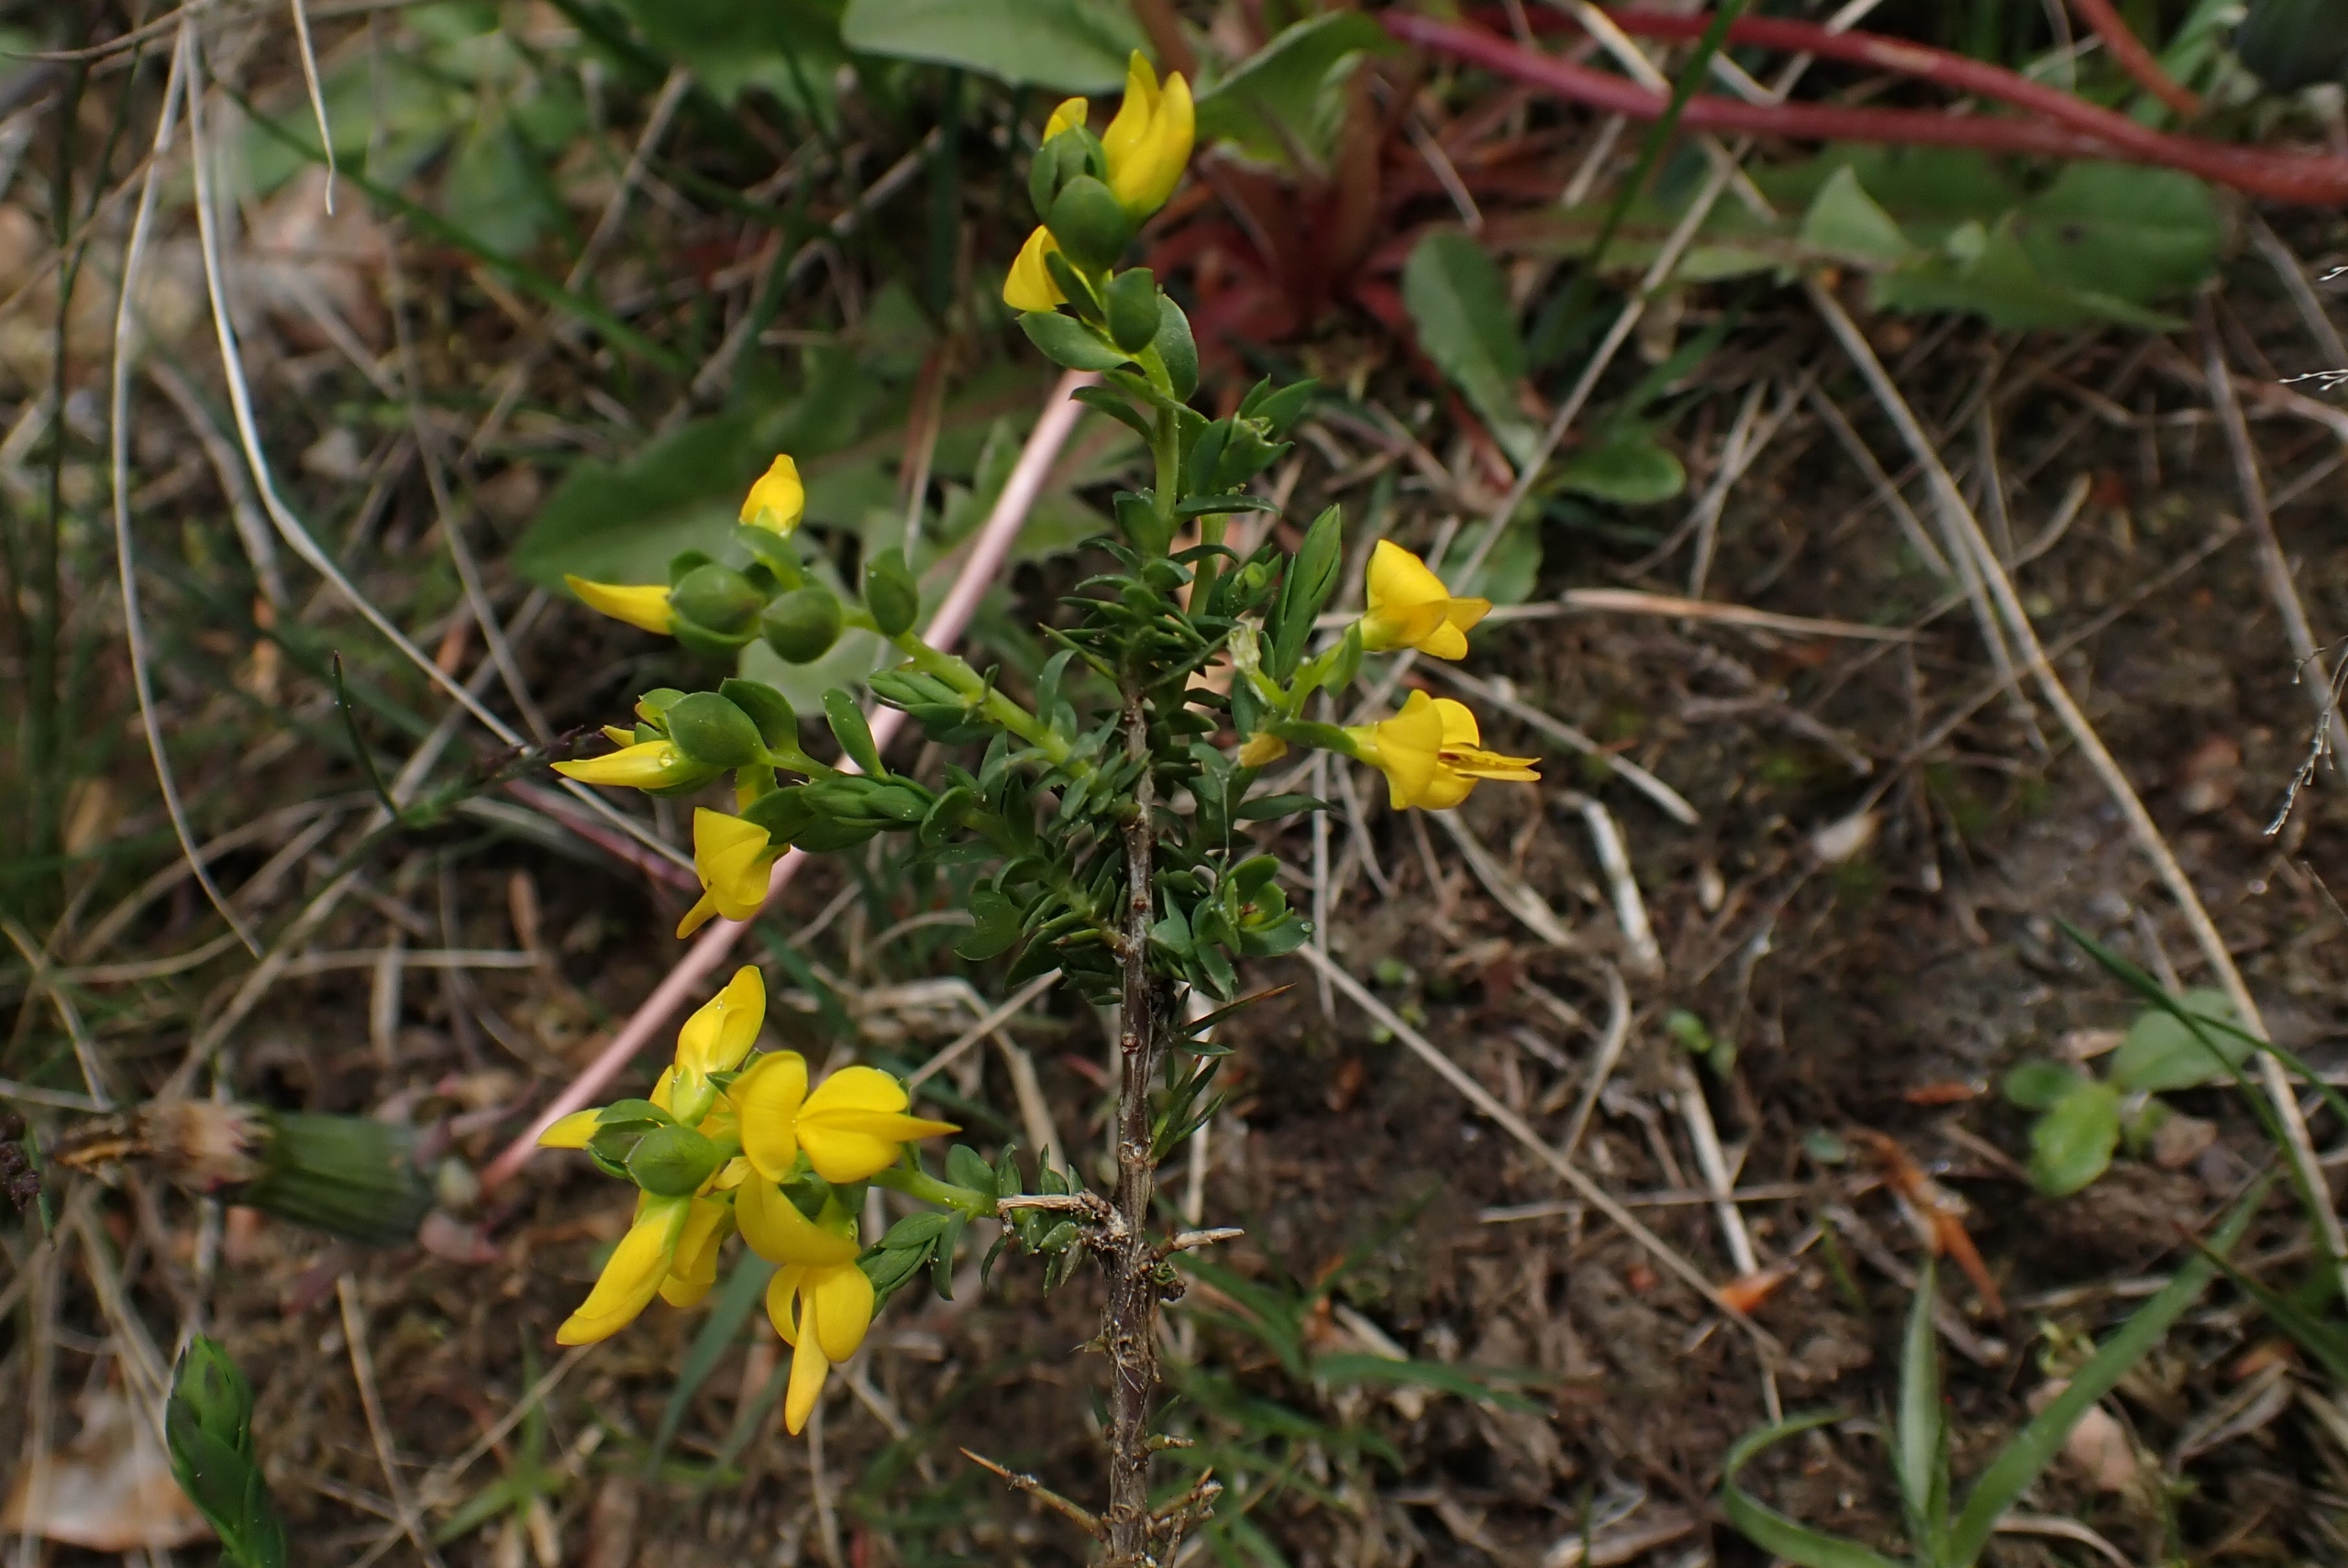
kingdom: Plantae
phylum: Tracheophyta
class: Magnoliopsida
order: Fabales
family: Fabaceae
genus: Genista
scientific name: Genista anglica
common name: Engelsk visse
